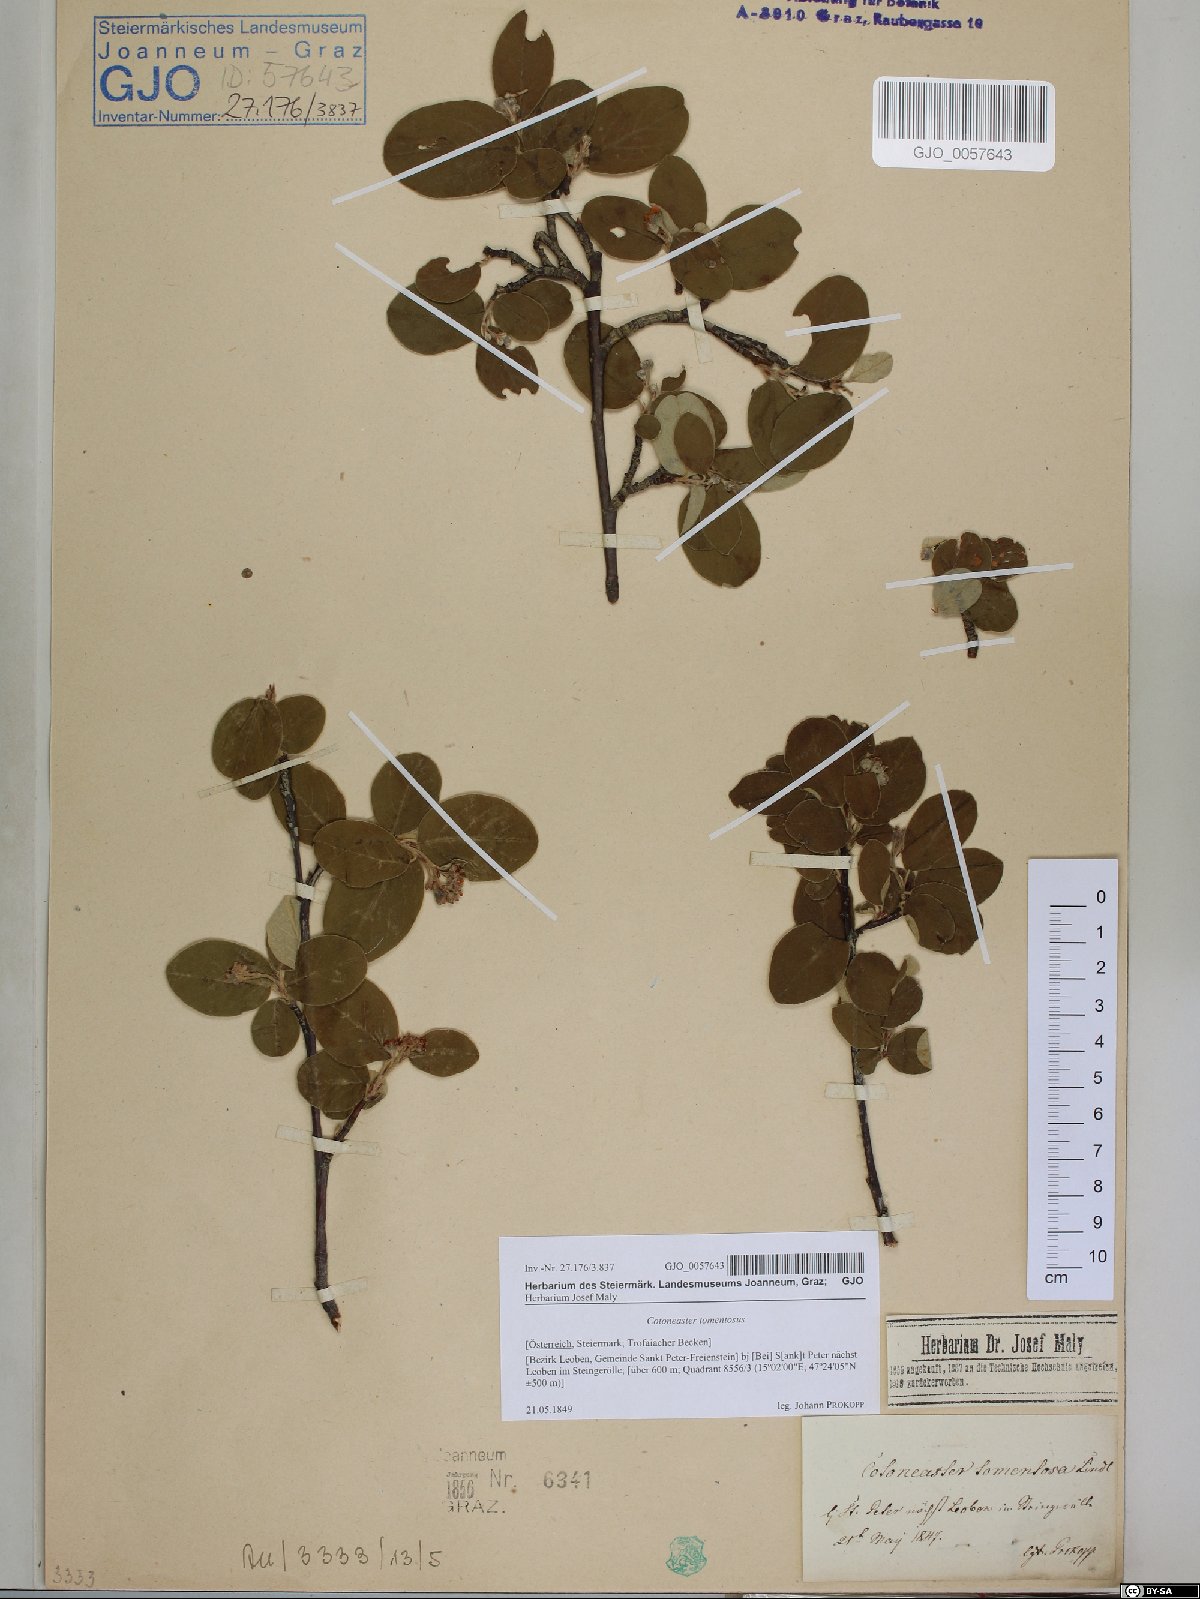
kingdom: Plantae
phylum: Tracheophyta
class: Magnoliopsida
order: Rosales
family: Rosaceae
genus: Cotoneaster
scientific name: Cotoneaster tomentosus
